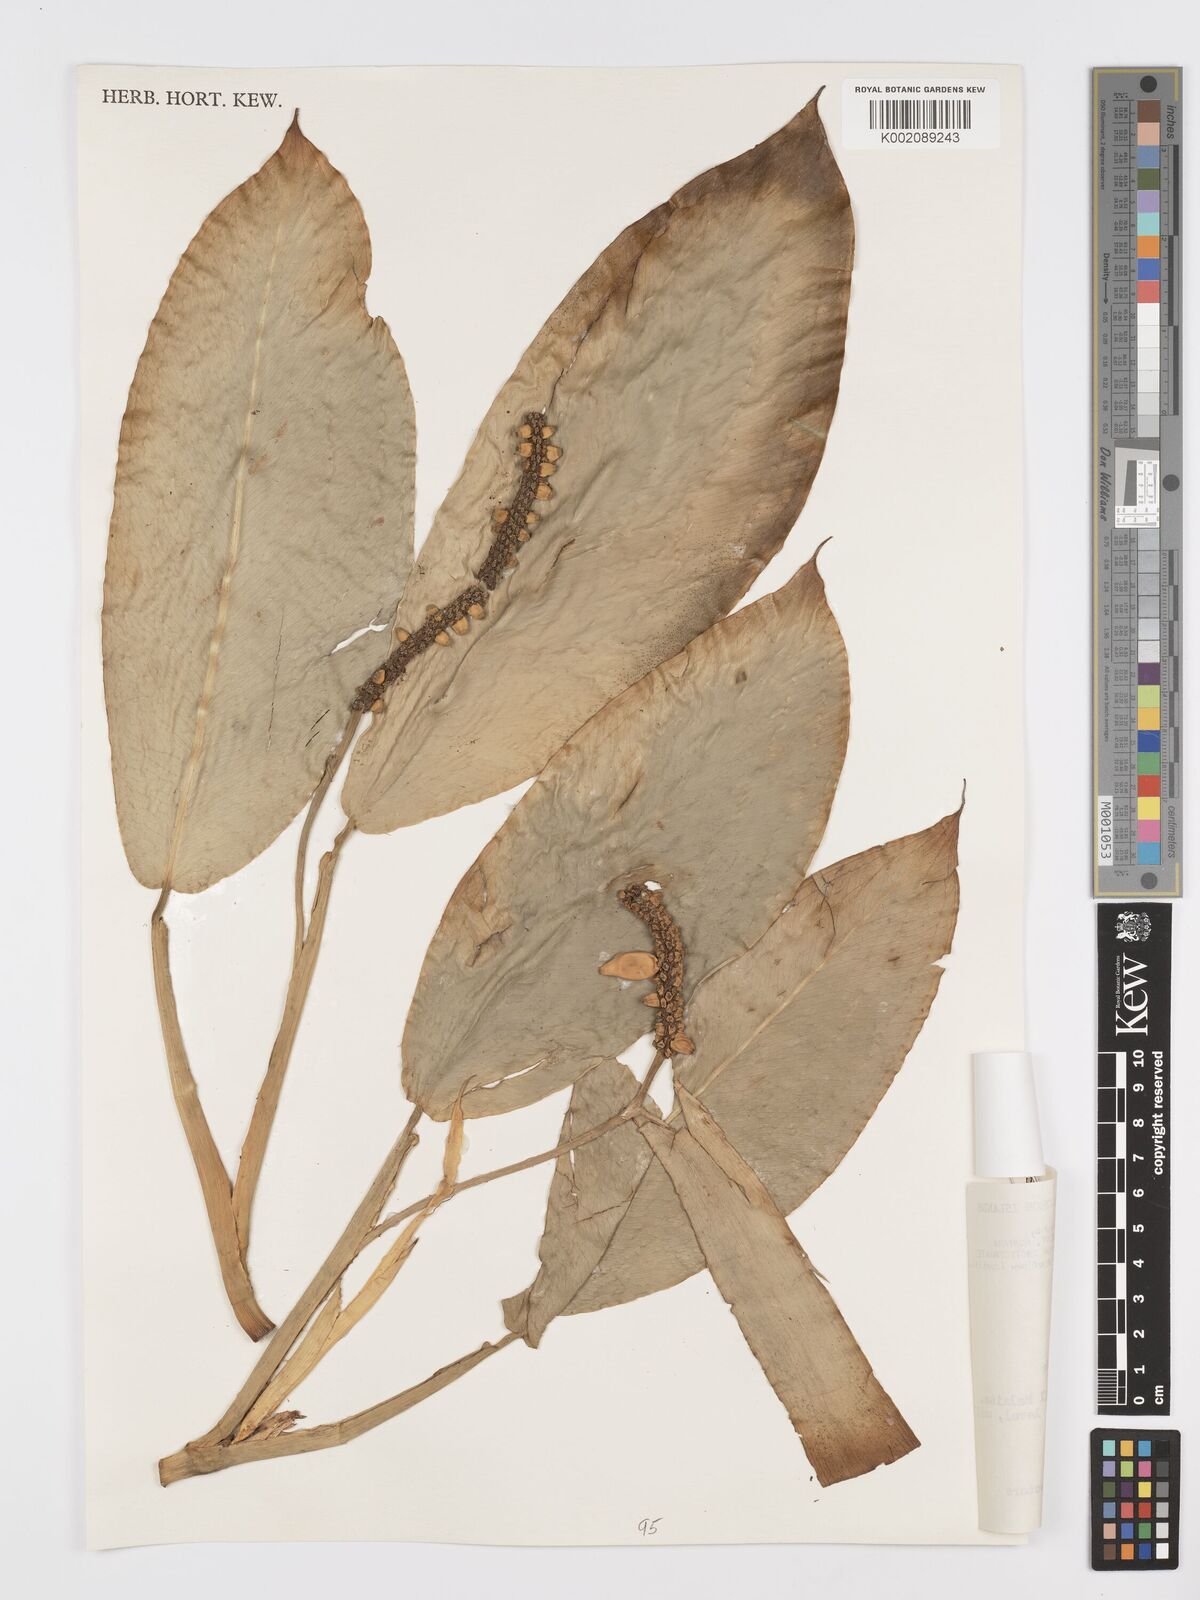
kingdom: Plantae
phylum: Tracheophyta
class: Liliopsida
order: Alismatales
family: Araceae
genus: Pothos
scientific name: Pothos tener
